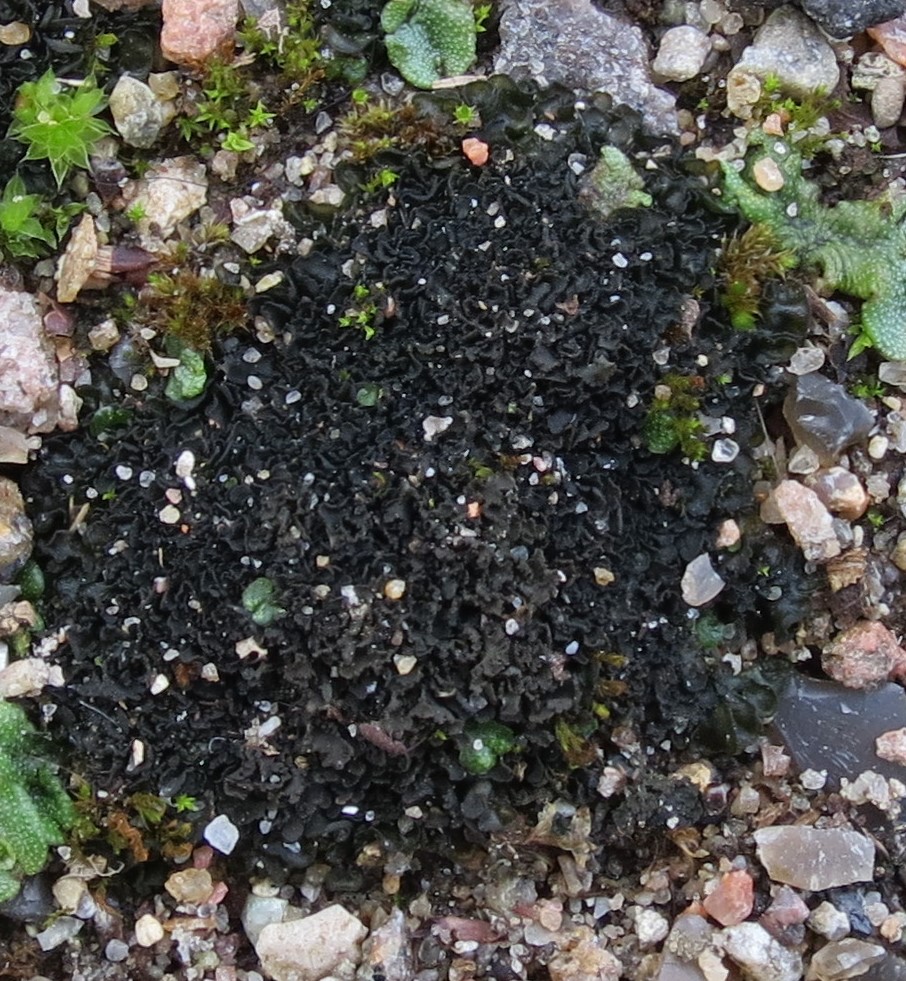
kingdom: Fungi
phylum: Ascomycota
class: Lecanoromycetes
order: Peltigerales
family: Collemataceae
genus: Blennothallia
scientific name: Blennothallia crispa
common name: kruset bævrelav
